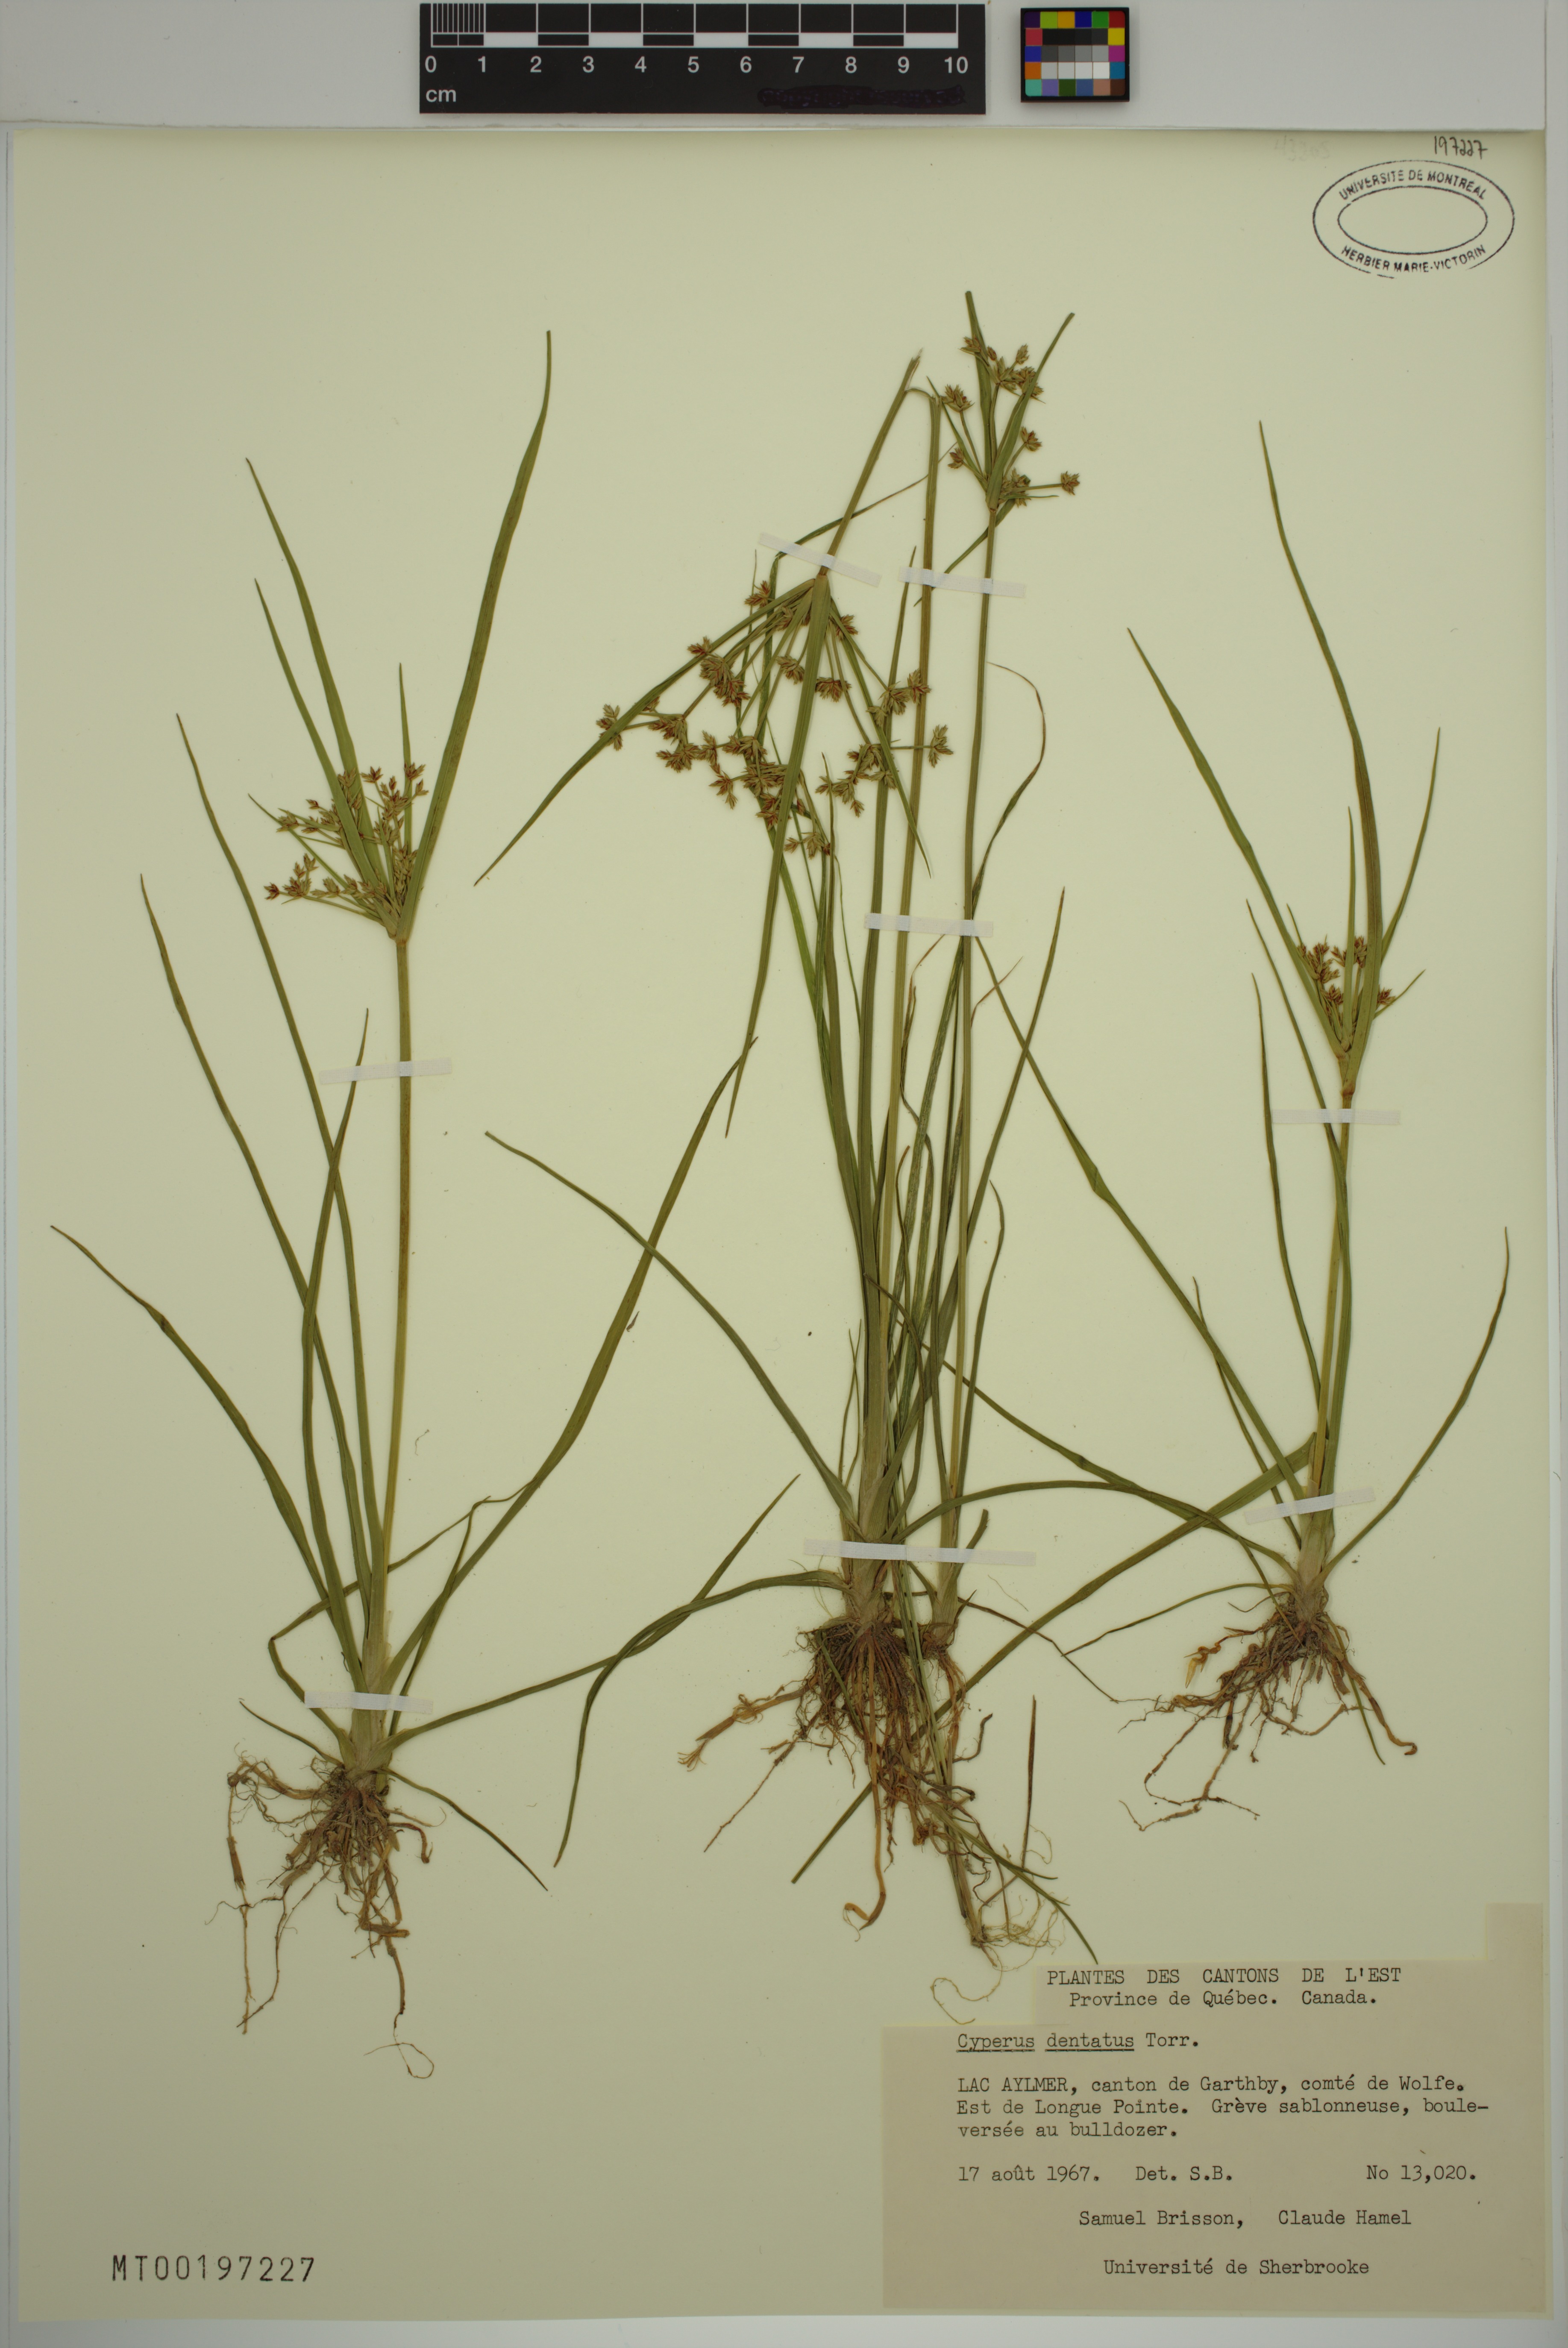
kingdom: Plantae
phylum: Tracheophyta
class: Liliopsida
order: Poales
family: Cyperaceae
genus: Cyperus
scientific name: Cyperus dentatus
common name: Dentate umbrella sedge
